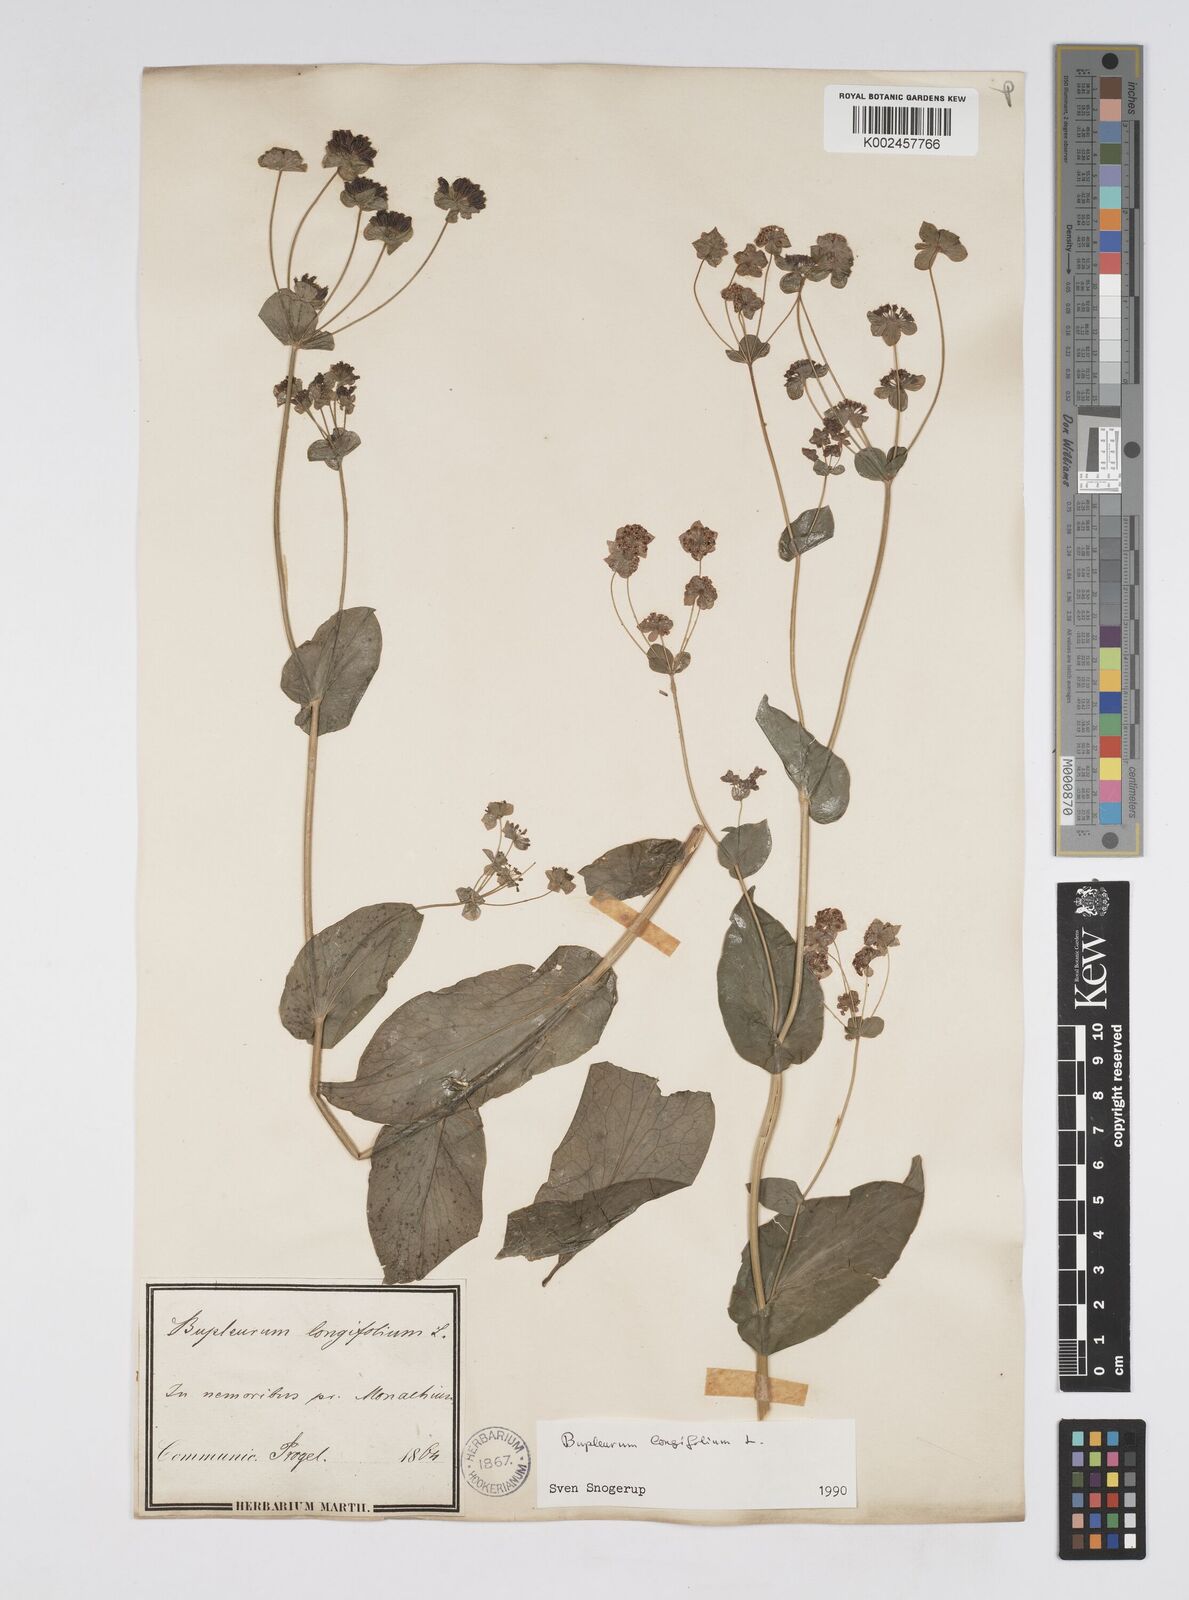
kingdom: Plantae
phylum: Tracheophyta
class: Magnoliopsida
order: Apiales
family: Apiaceae
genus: Bupleurum
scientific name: Bupleurum longifolium
